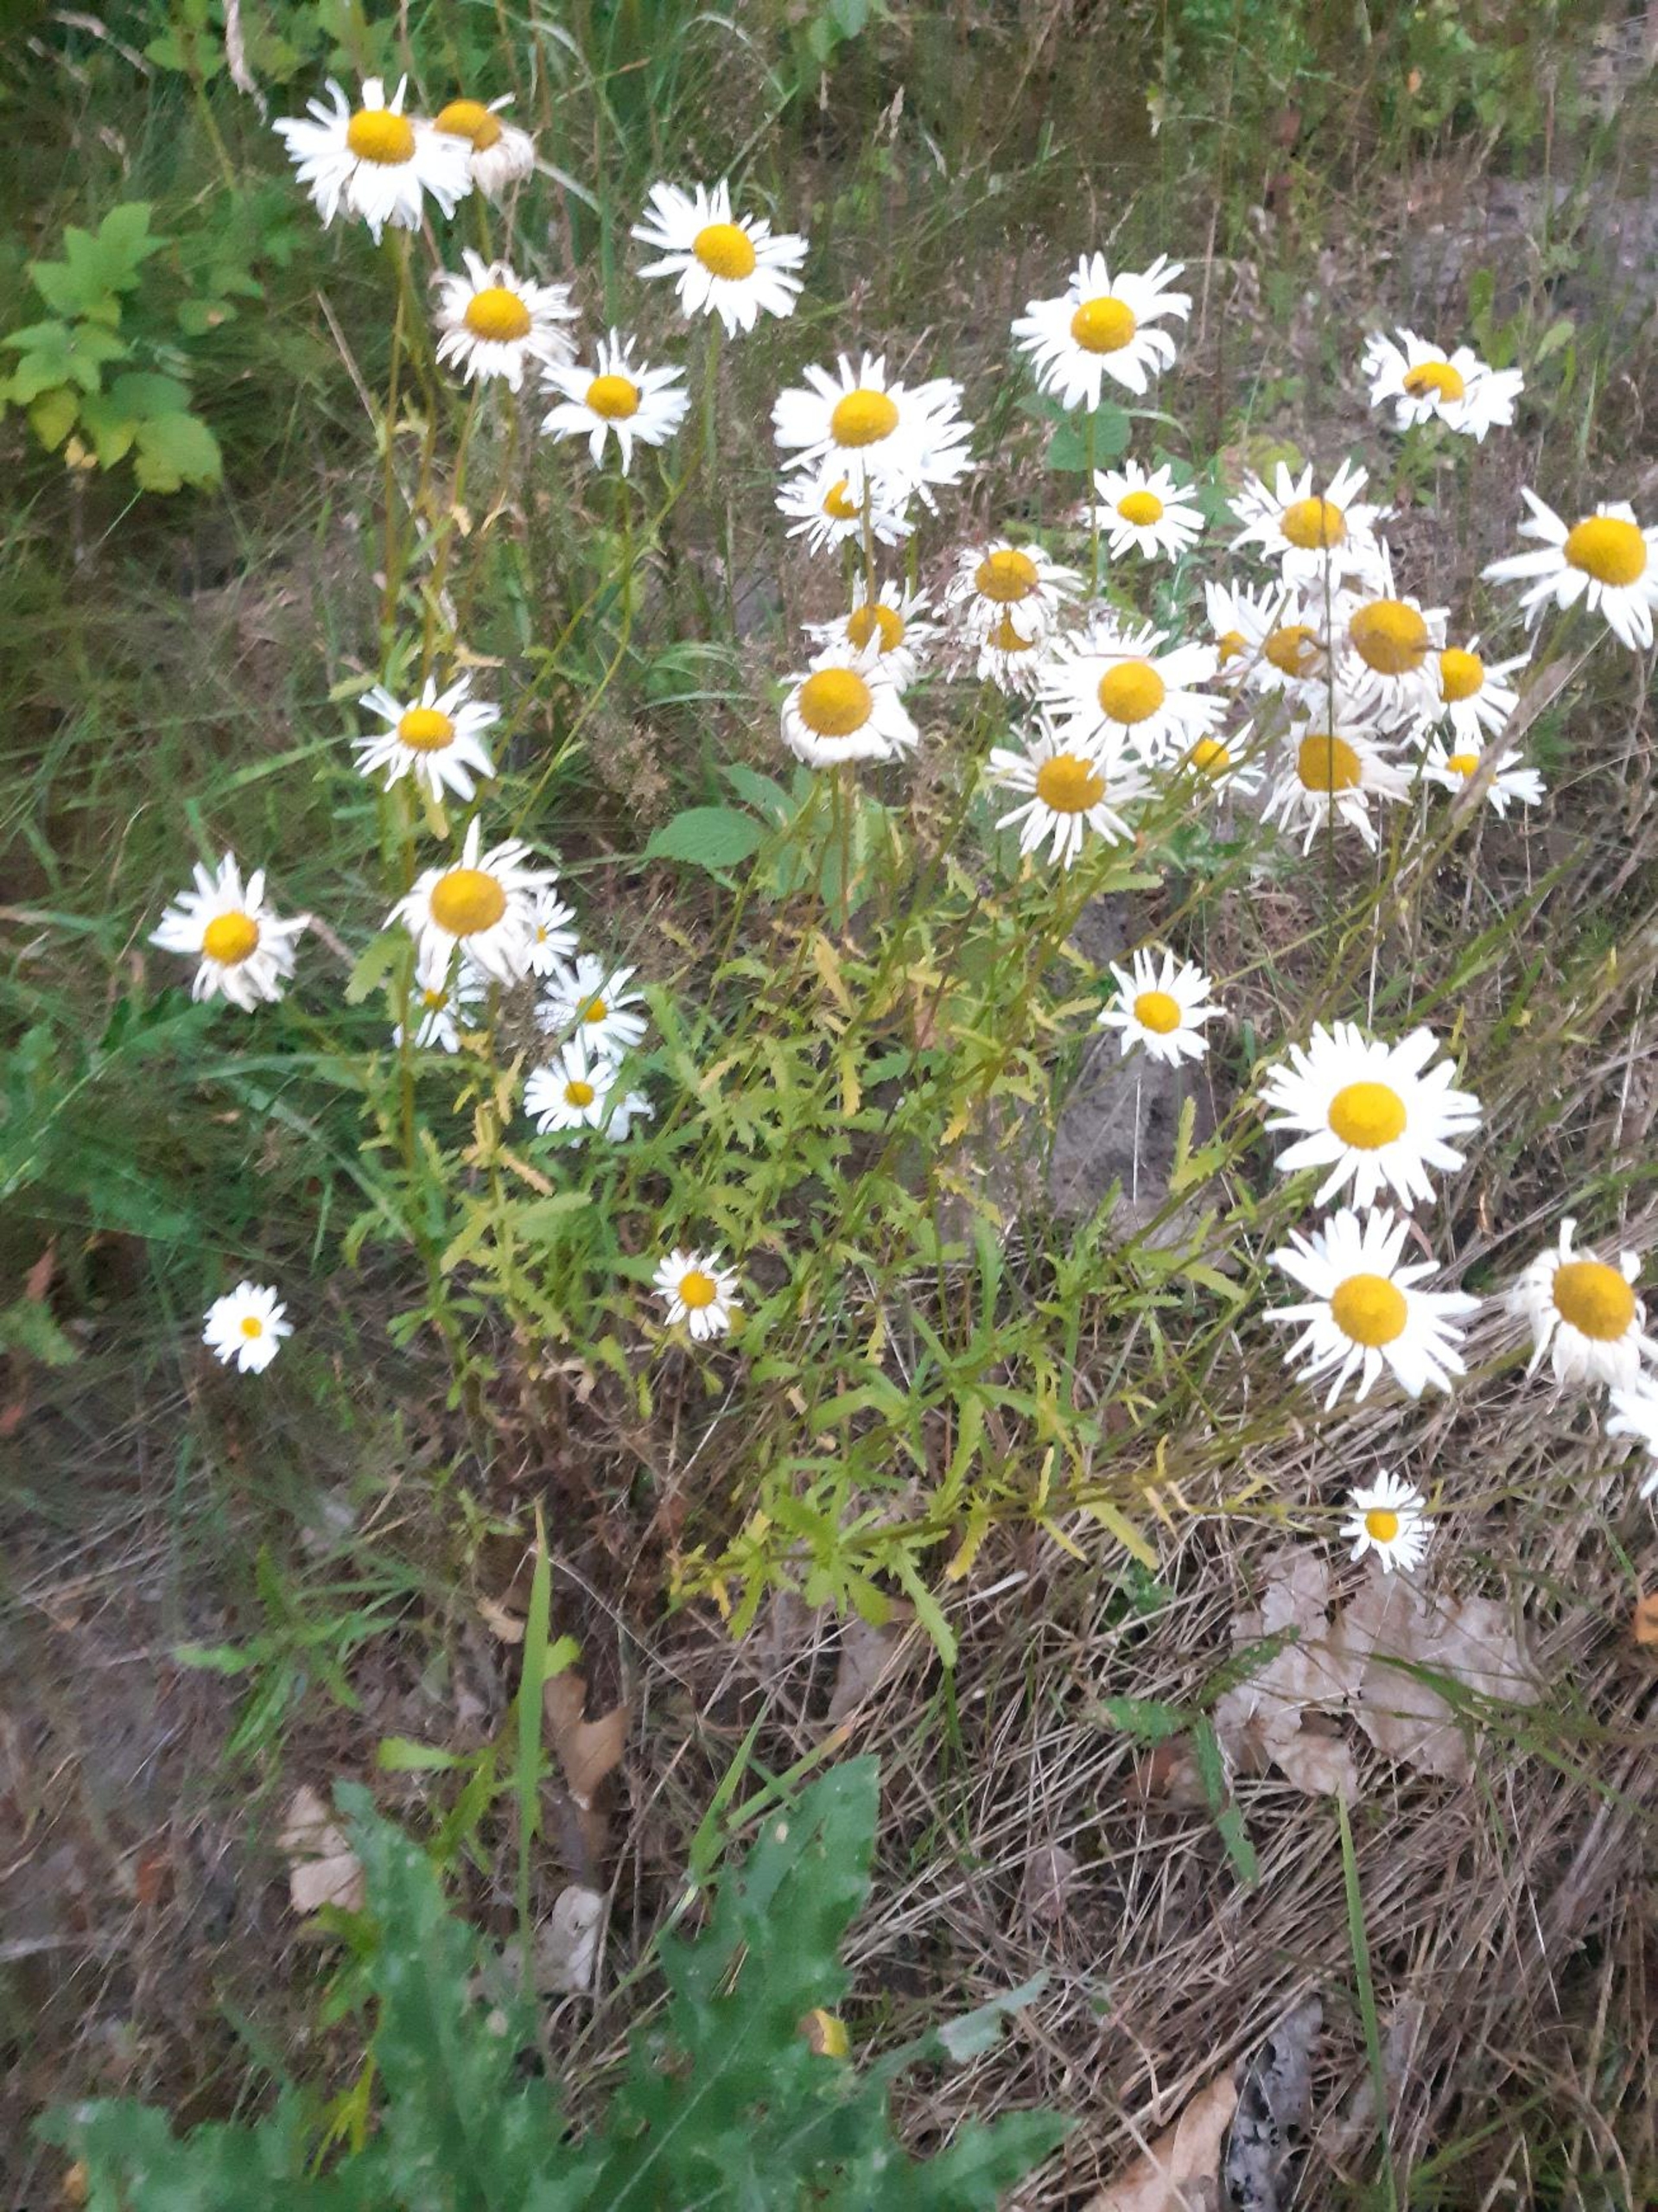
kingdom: Plantae
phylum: Tracheophyta
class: Magnoliopsida
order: Asterales
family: Asteraceae
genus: Leucanthemum
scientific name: Leucanthemum vulgare
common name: Hvid okseøje
